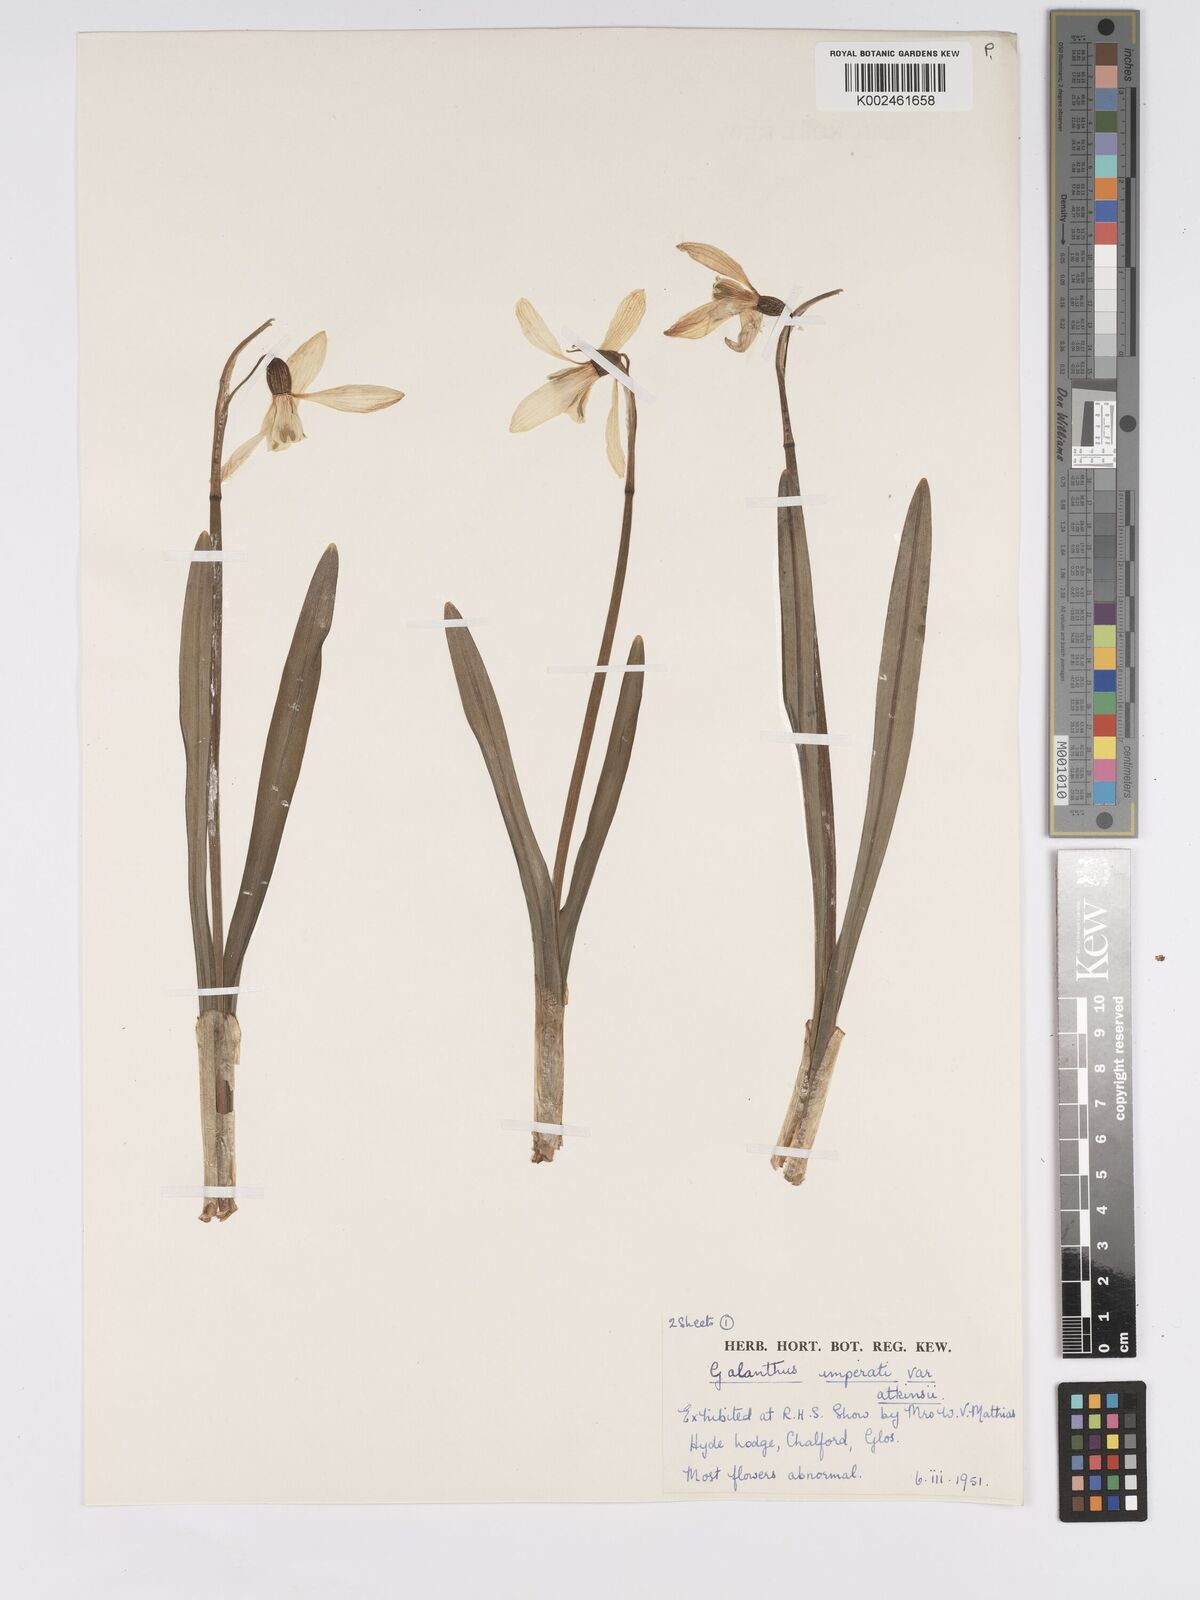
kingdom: Plantae
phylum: Tracheophyta
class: Liliopsida
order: Asparagales
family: Amaryllidaceae
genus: Galanthus
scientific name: Galanthus
